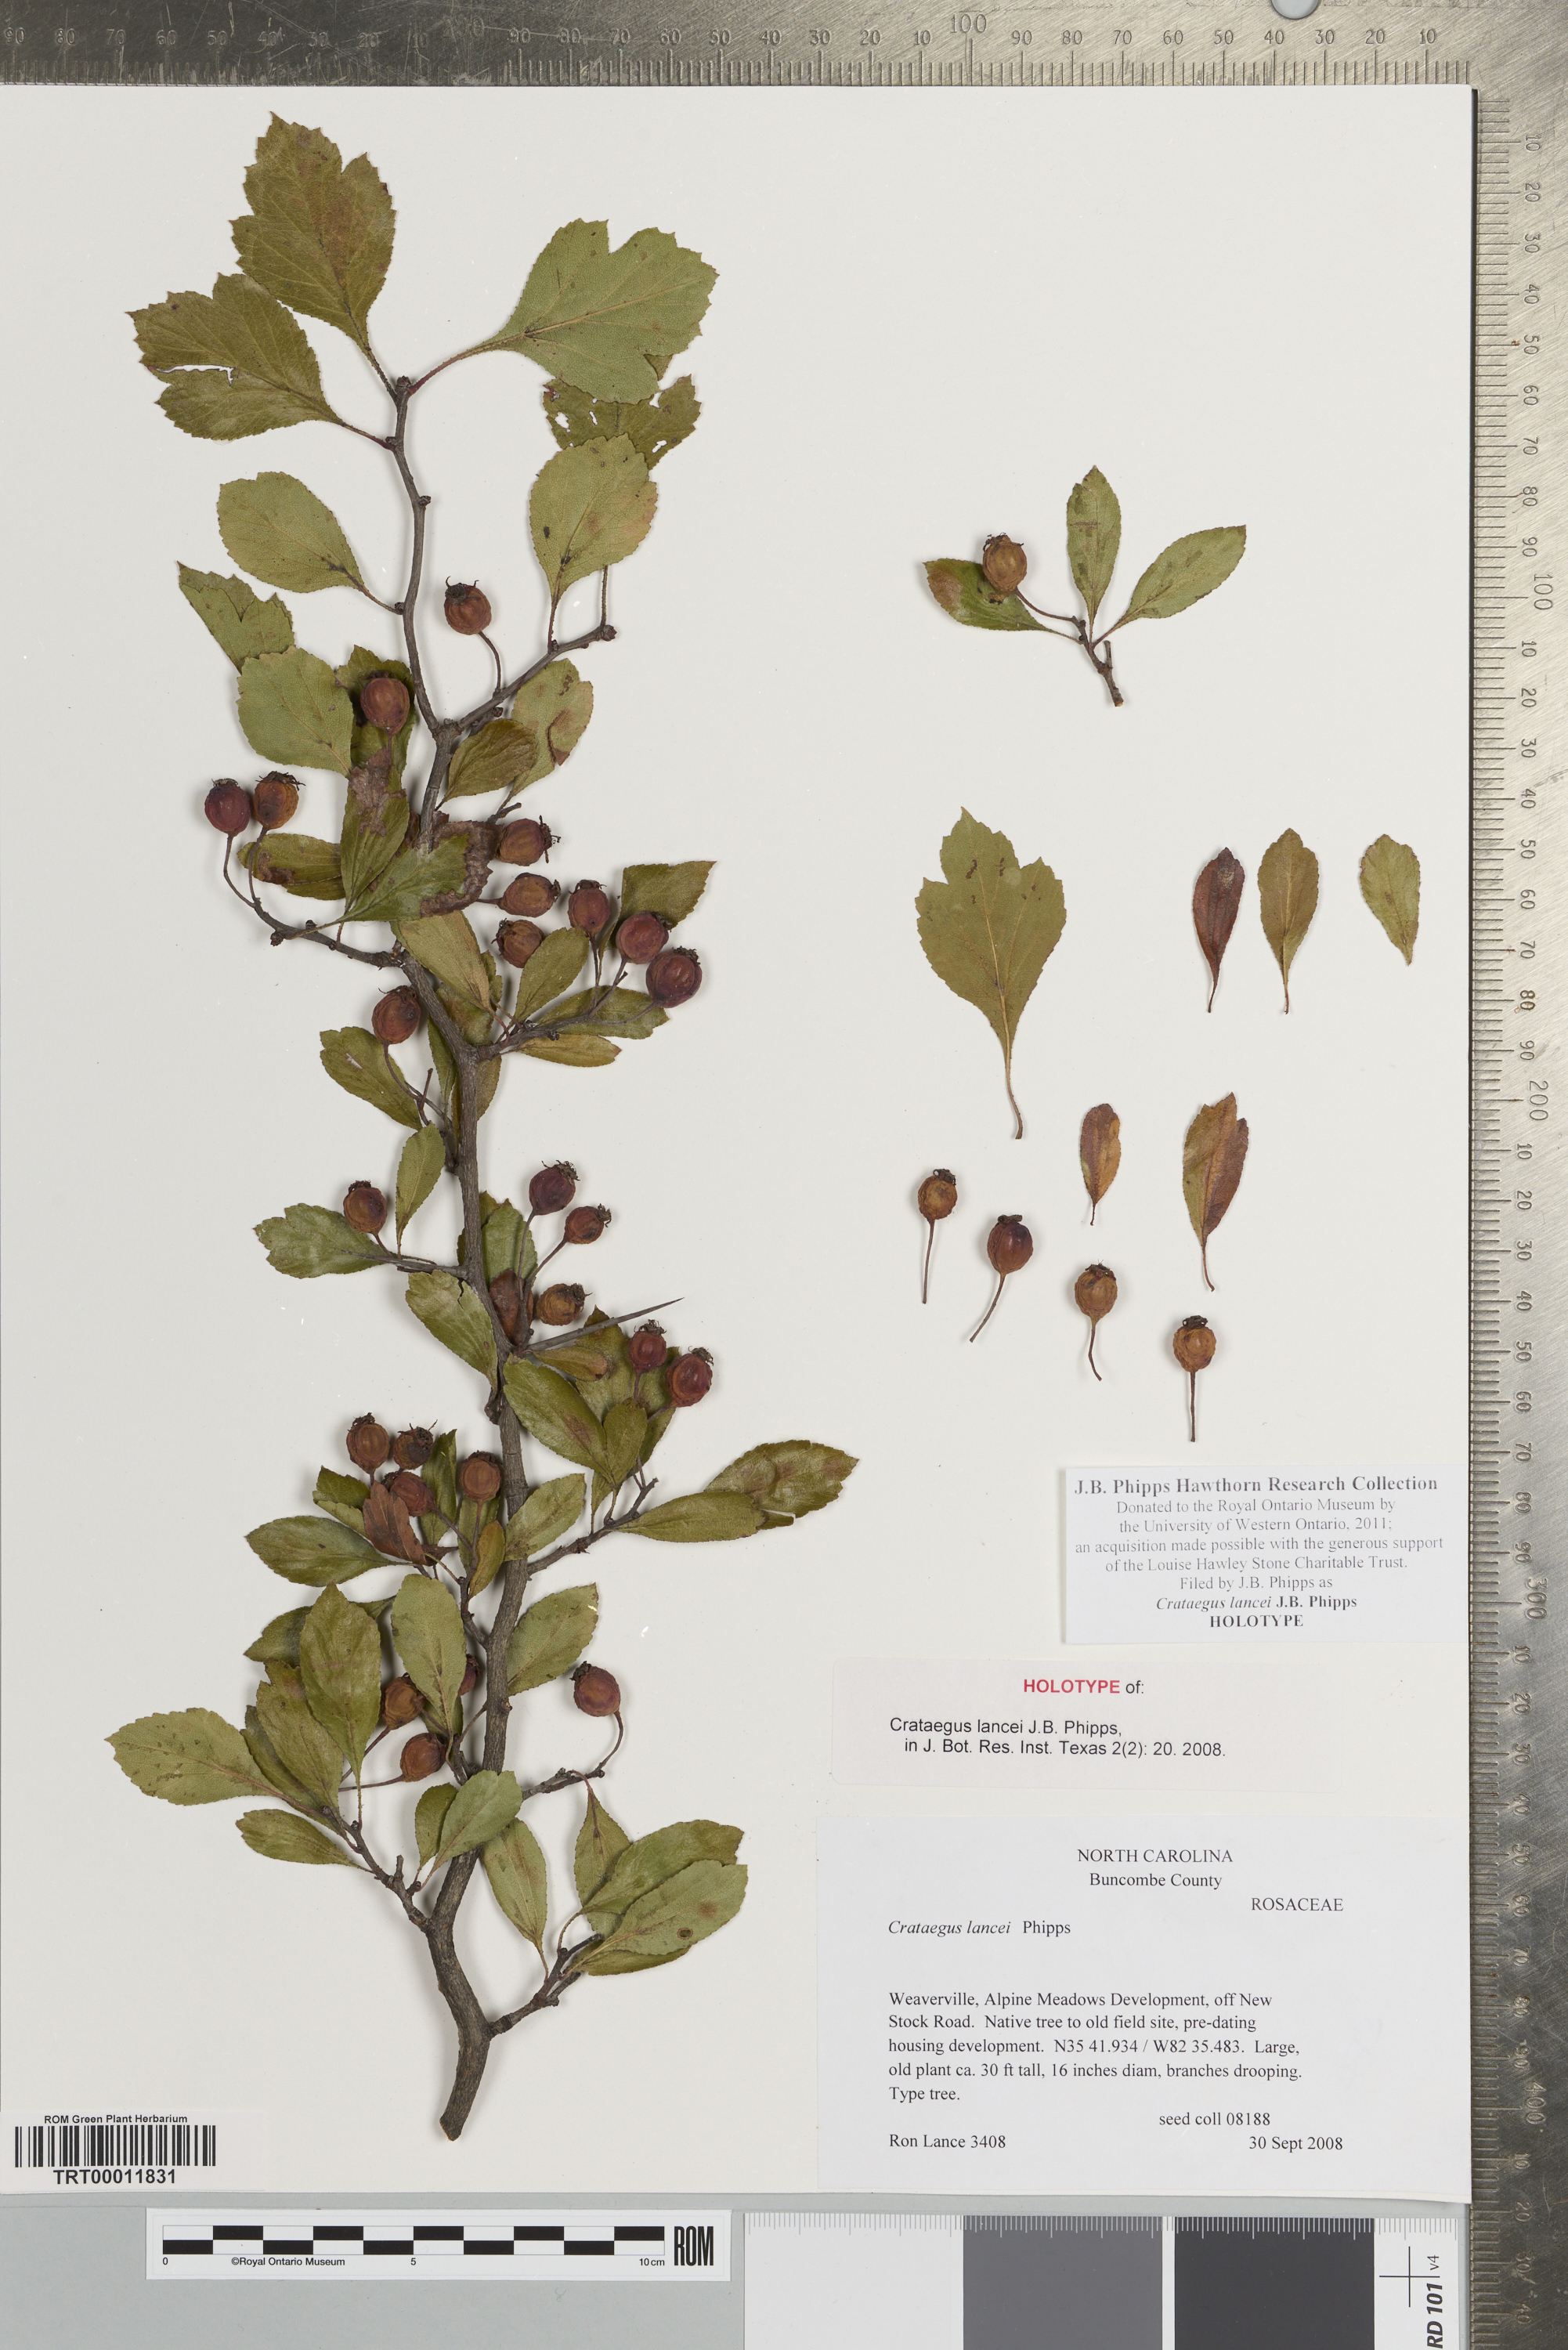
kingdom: Plantae
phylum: Tracheophyta
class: Magnoliopsida
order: Rosales
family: Rosaceae
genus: Crataegus
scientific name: Crataegus senta
